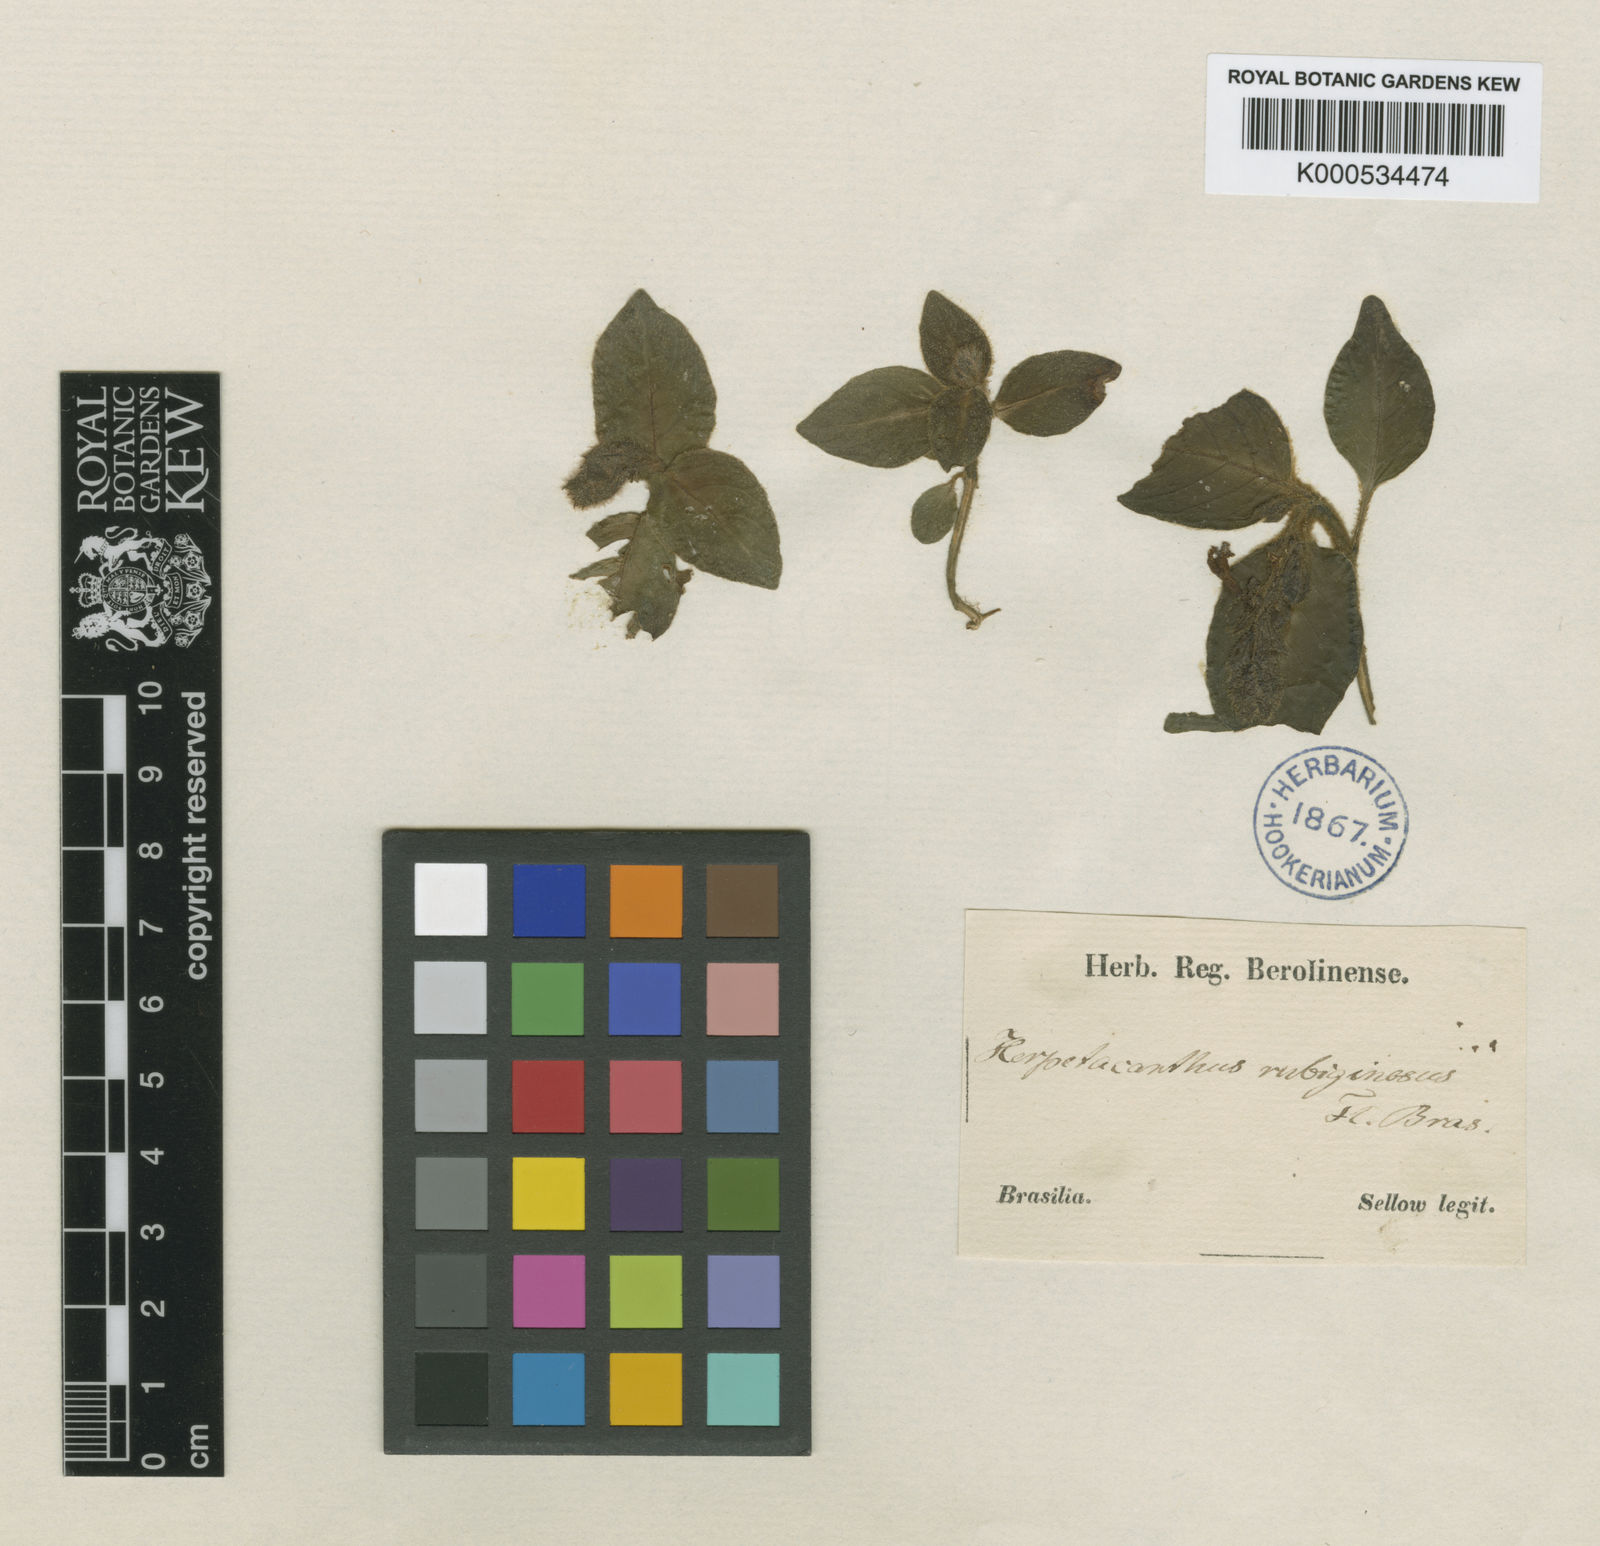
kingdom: Plantae
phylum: Tracheophyta
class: Magnoliopsida
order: Lamiales
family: Acanthaceae
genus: Herpetacanthus
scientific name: Herpetacanthus rubiginosus
